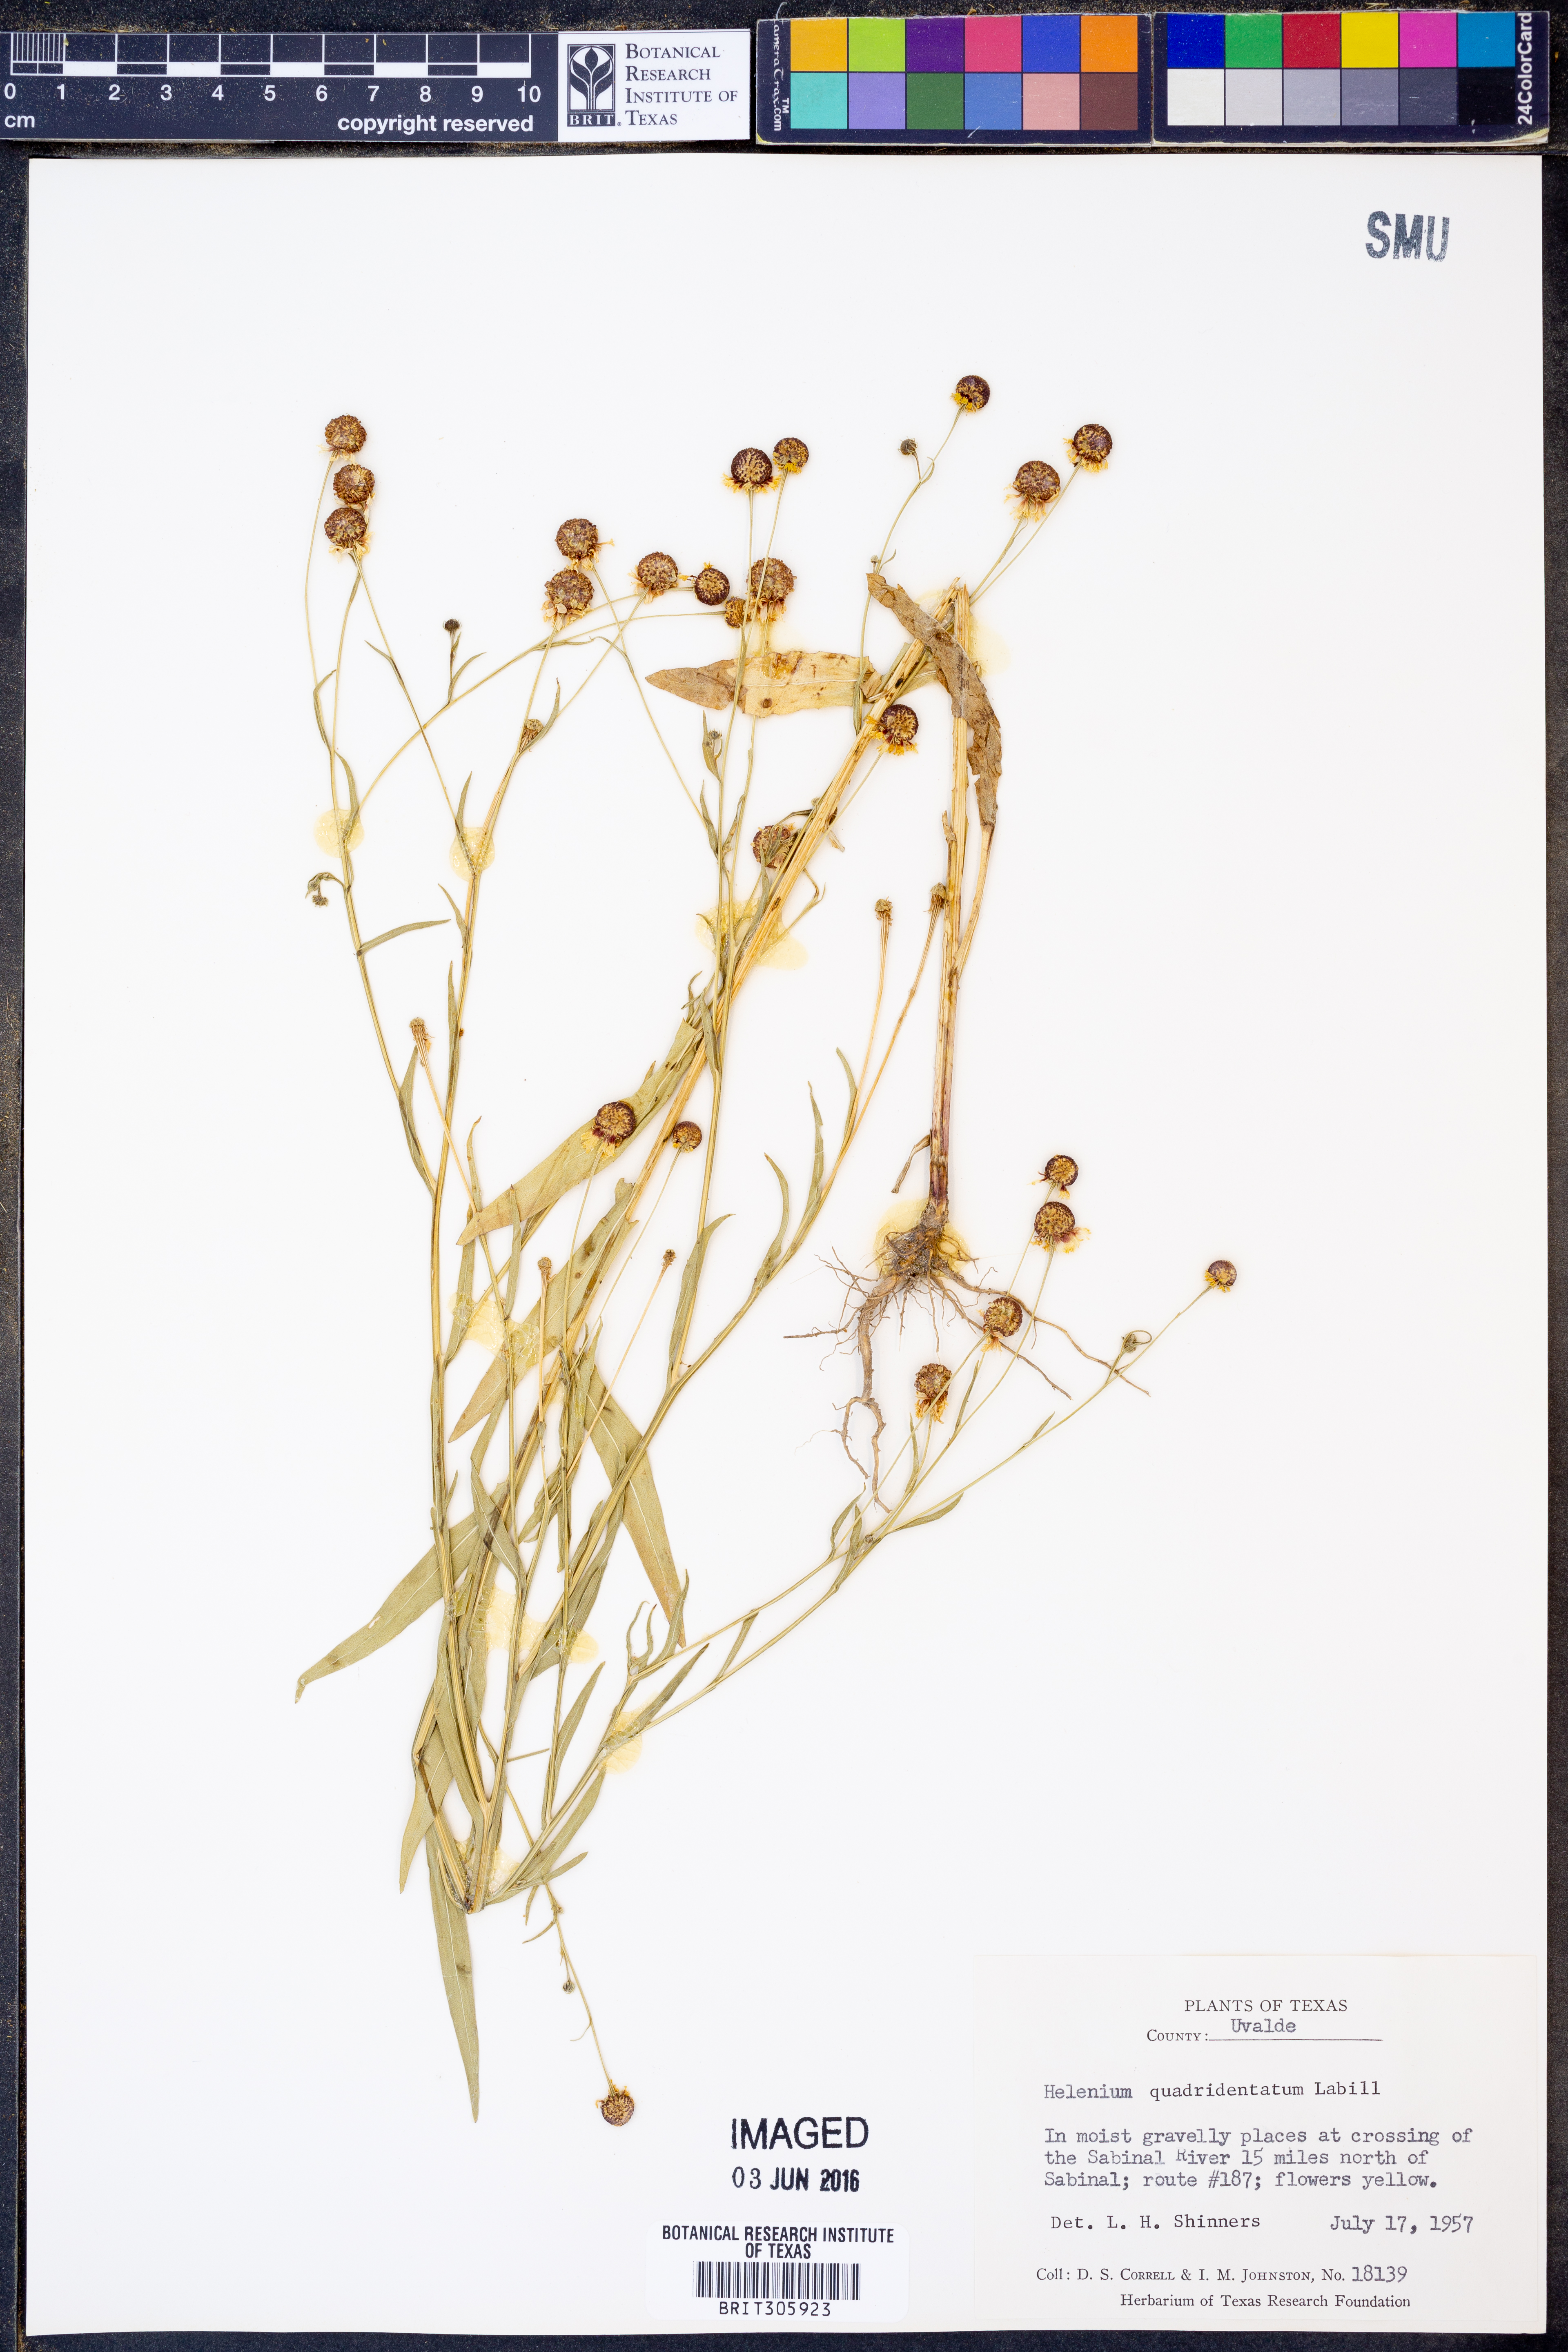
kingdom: Plantae
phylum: Tracheophyta
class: Magnoliopsida
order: Asterales
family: Asteraceae
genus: Helenium
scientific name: Helenium quadridentatum
